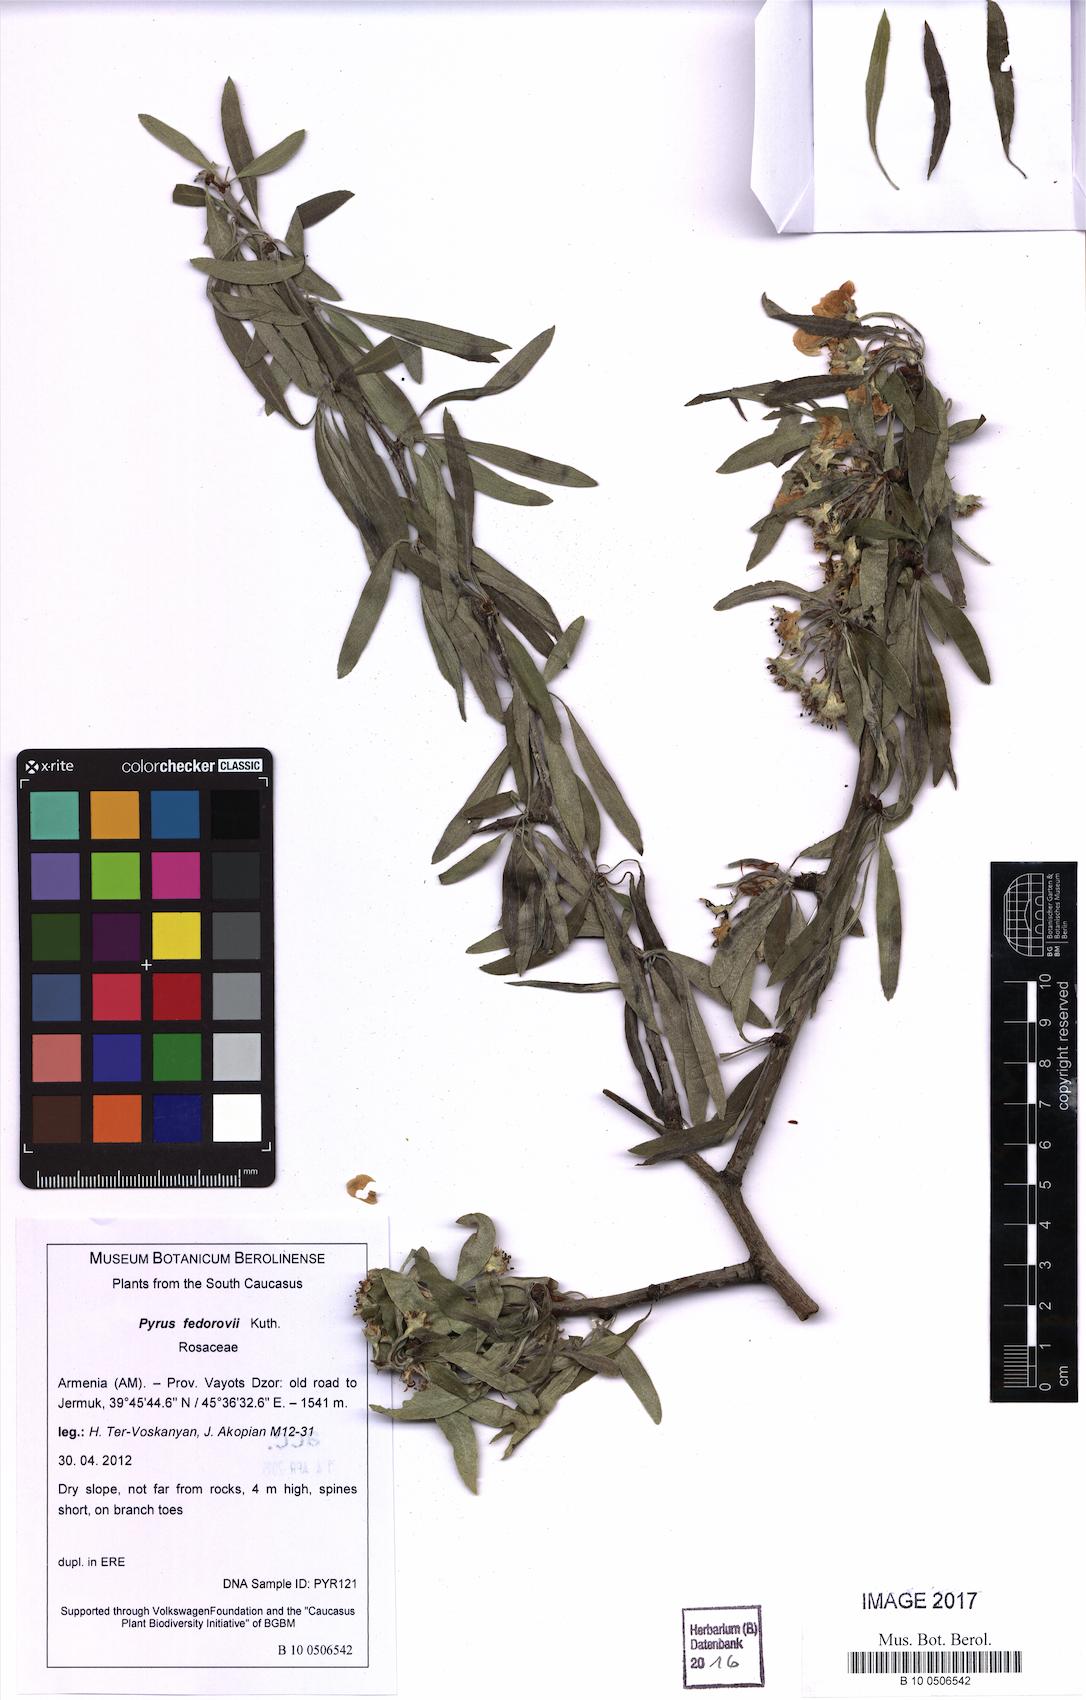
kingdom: Plantae
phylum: Tracheophyta
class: Magnoliopsida
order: Rosales
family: Rosaceae
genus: Pyrus
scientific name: Pyrus fedorovii
